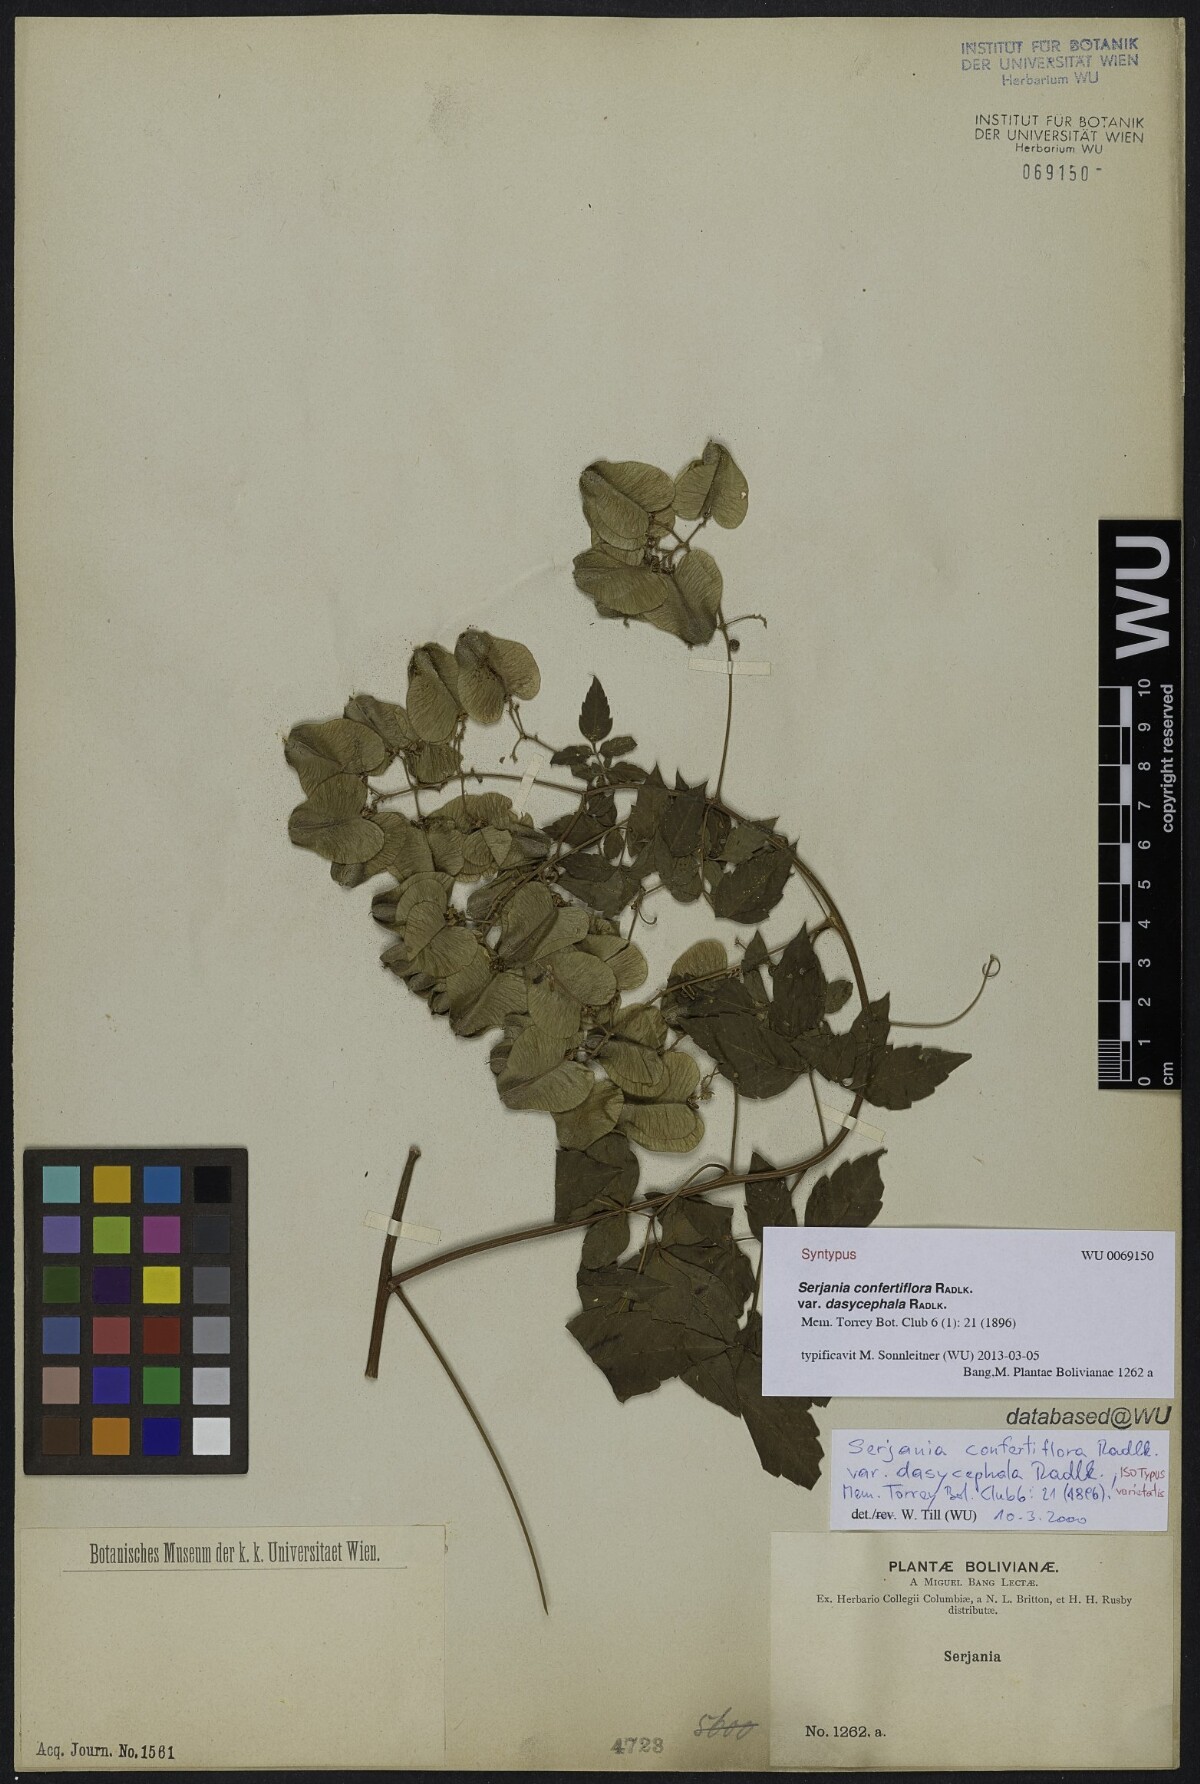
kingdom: Plantae
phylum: Tracheophyta
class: Magnoliopsida
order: Sapindales
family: Sapindaceae
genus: Serjania
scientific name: Serjania confertiflora
